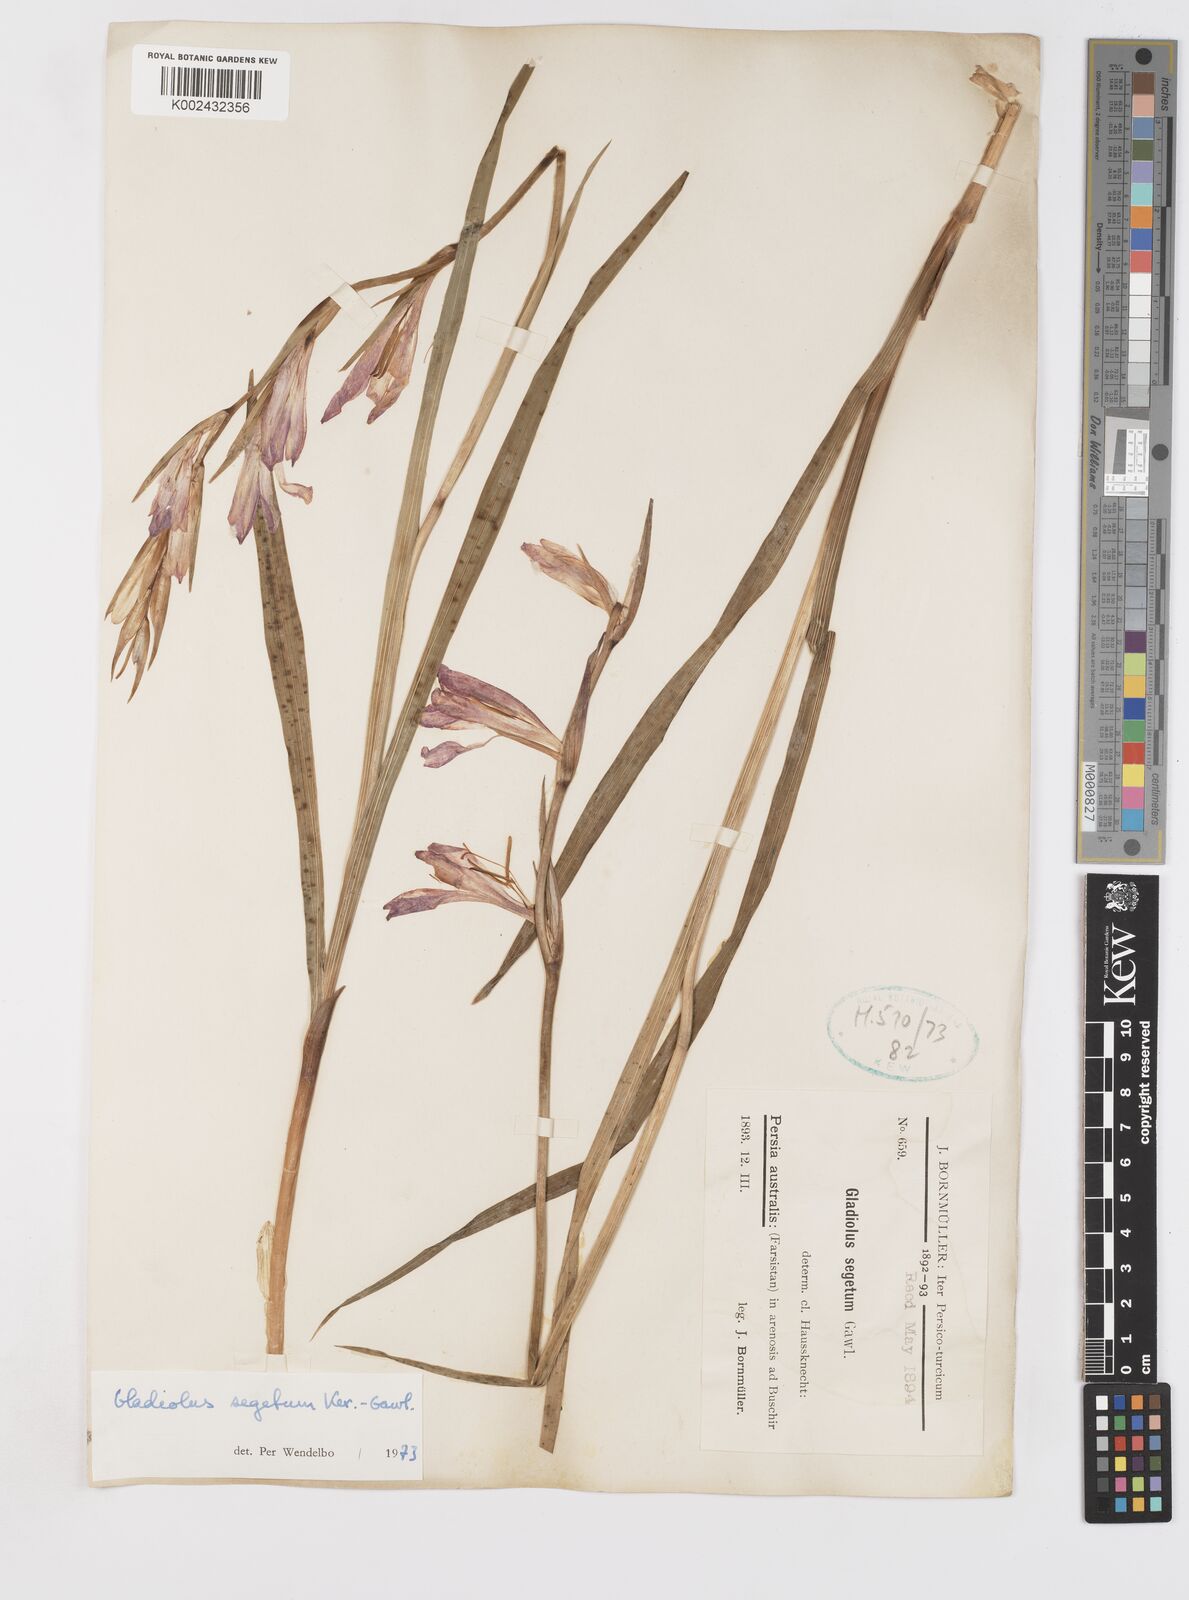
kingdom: Plantae
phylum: Tracheophyta
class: Liliopsida
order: Asparagales
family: Iridaceae
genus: Gladiolus
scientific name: Gladiolus italicus
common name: Field gladiolus
